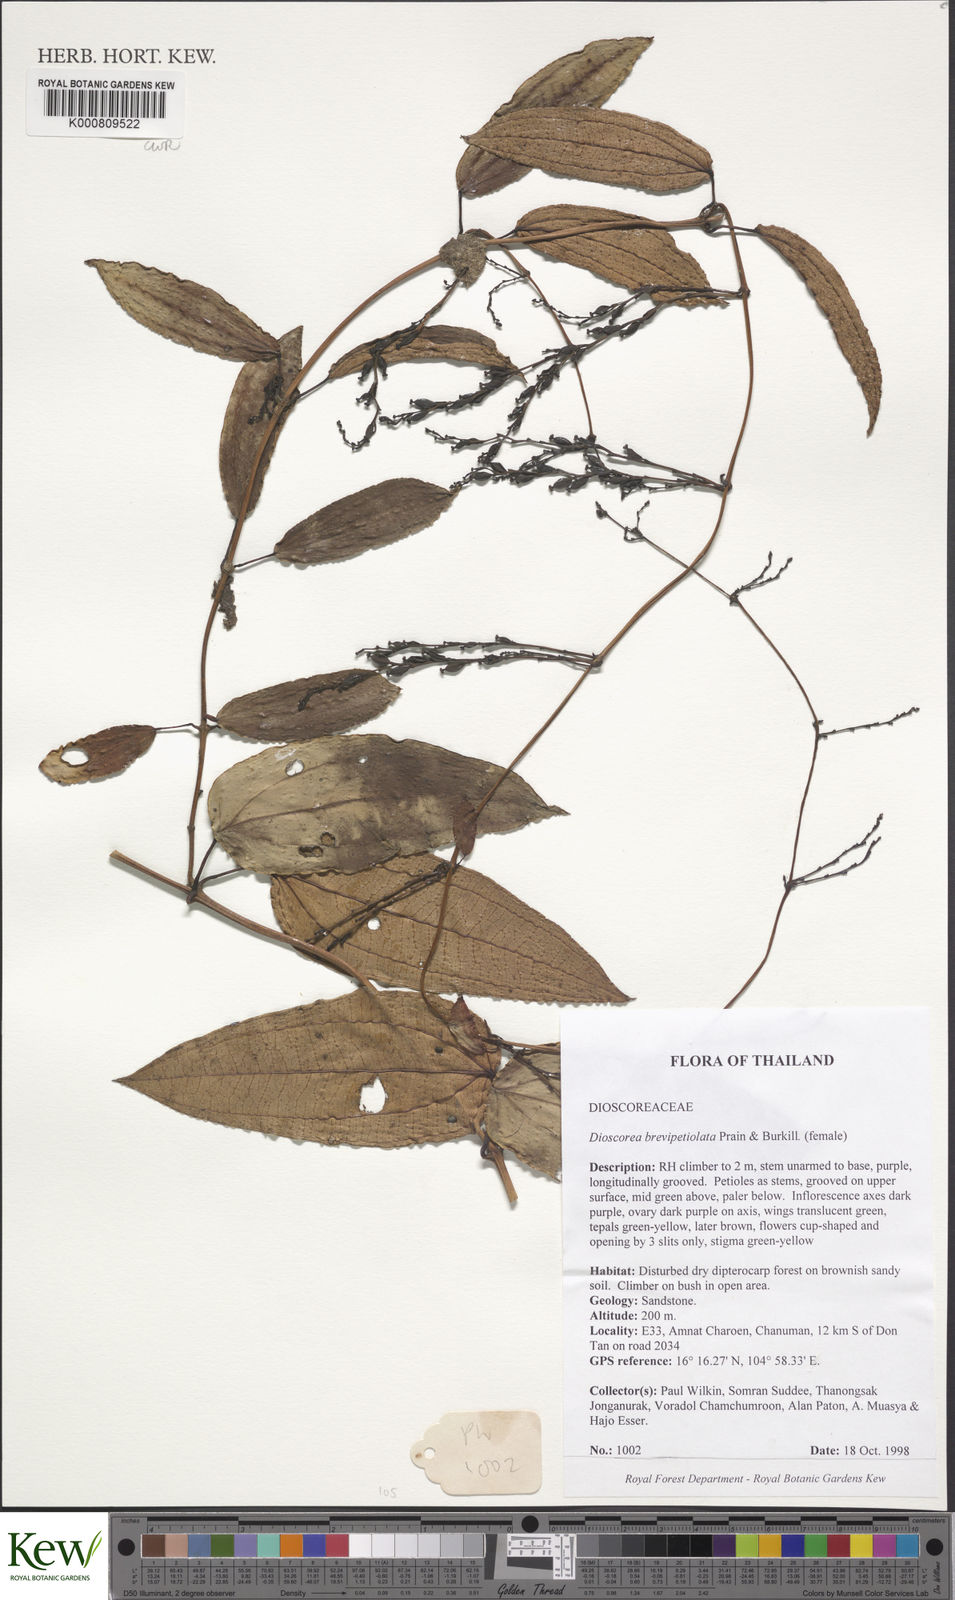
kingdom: Plantae
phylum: Tracheophyta
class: Liliopsida
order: Dioscoreales
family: Dioscoreaceae
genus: Dioscorea
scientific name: Dioscorea brevipetiolata
